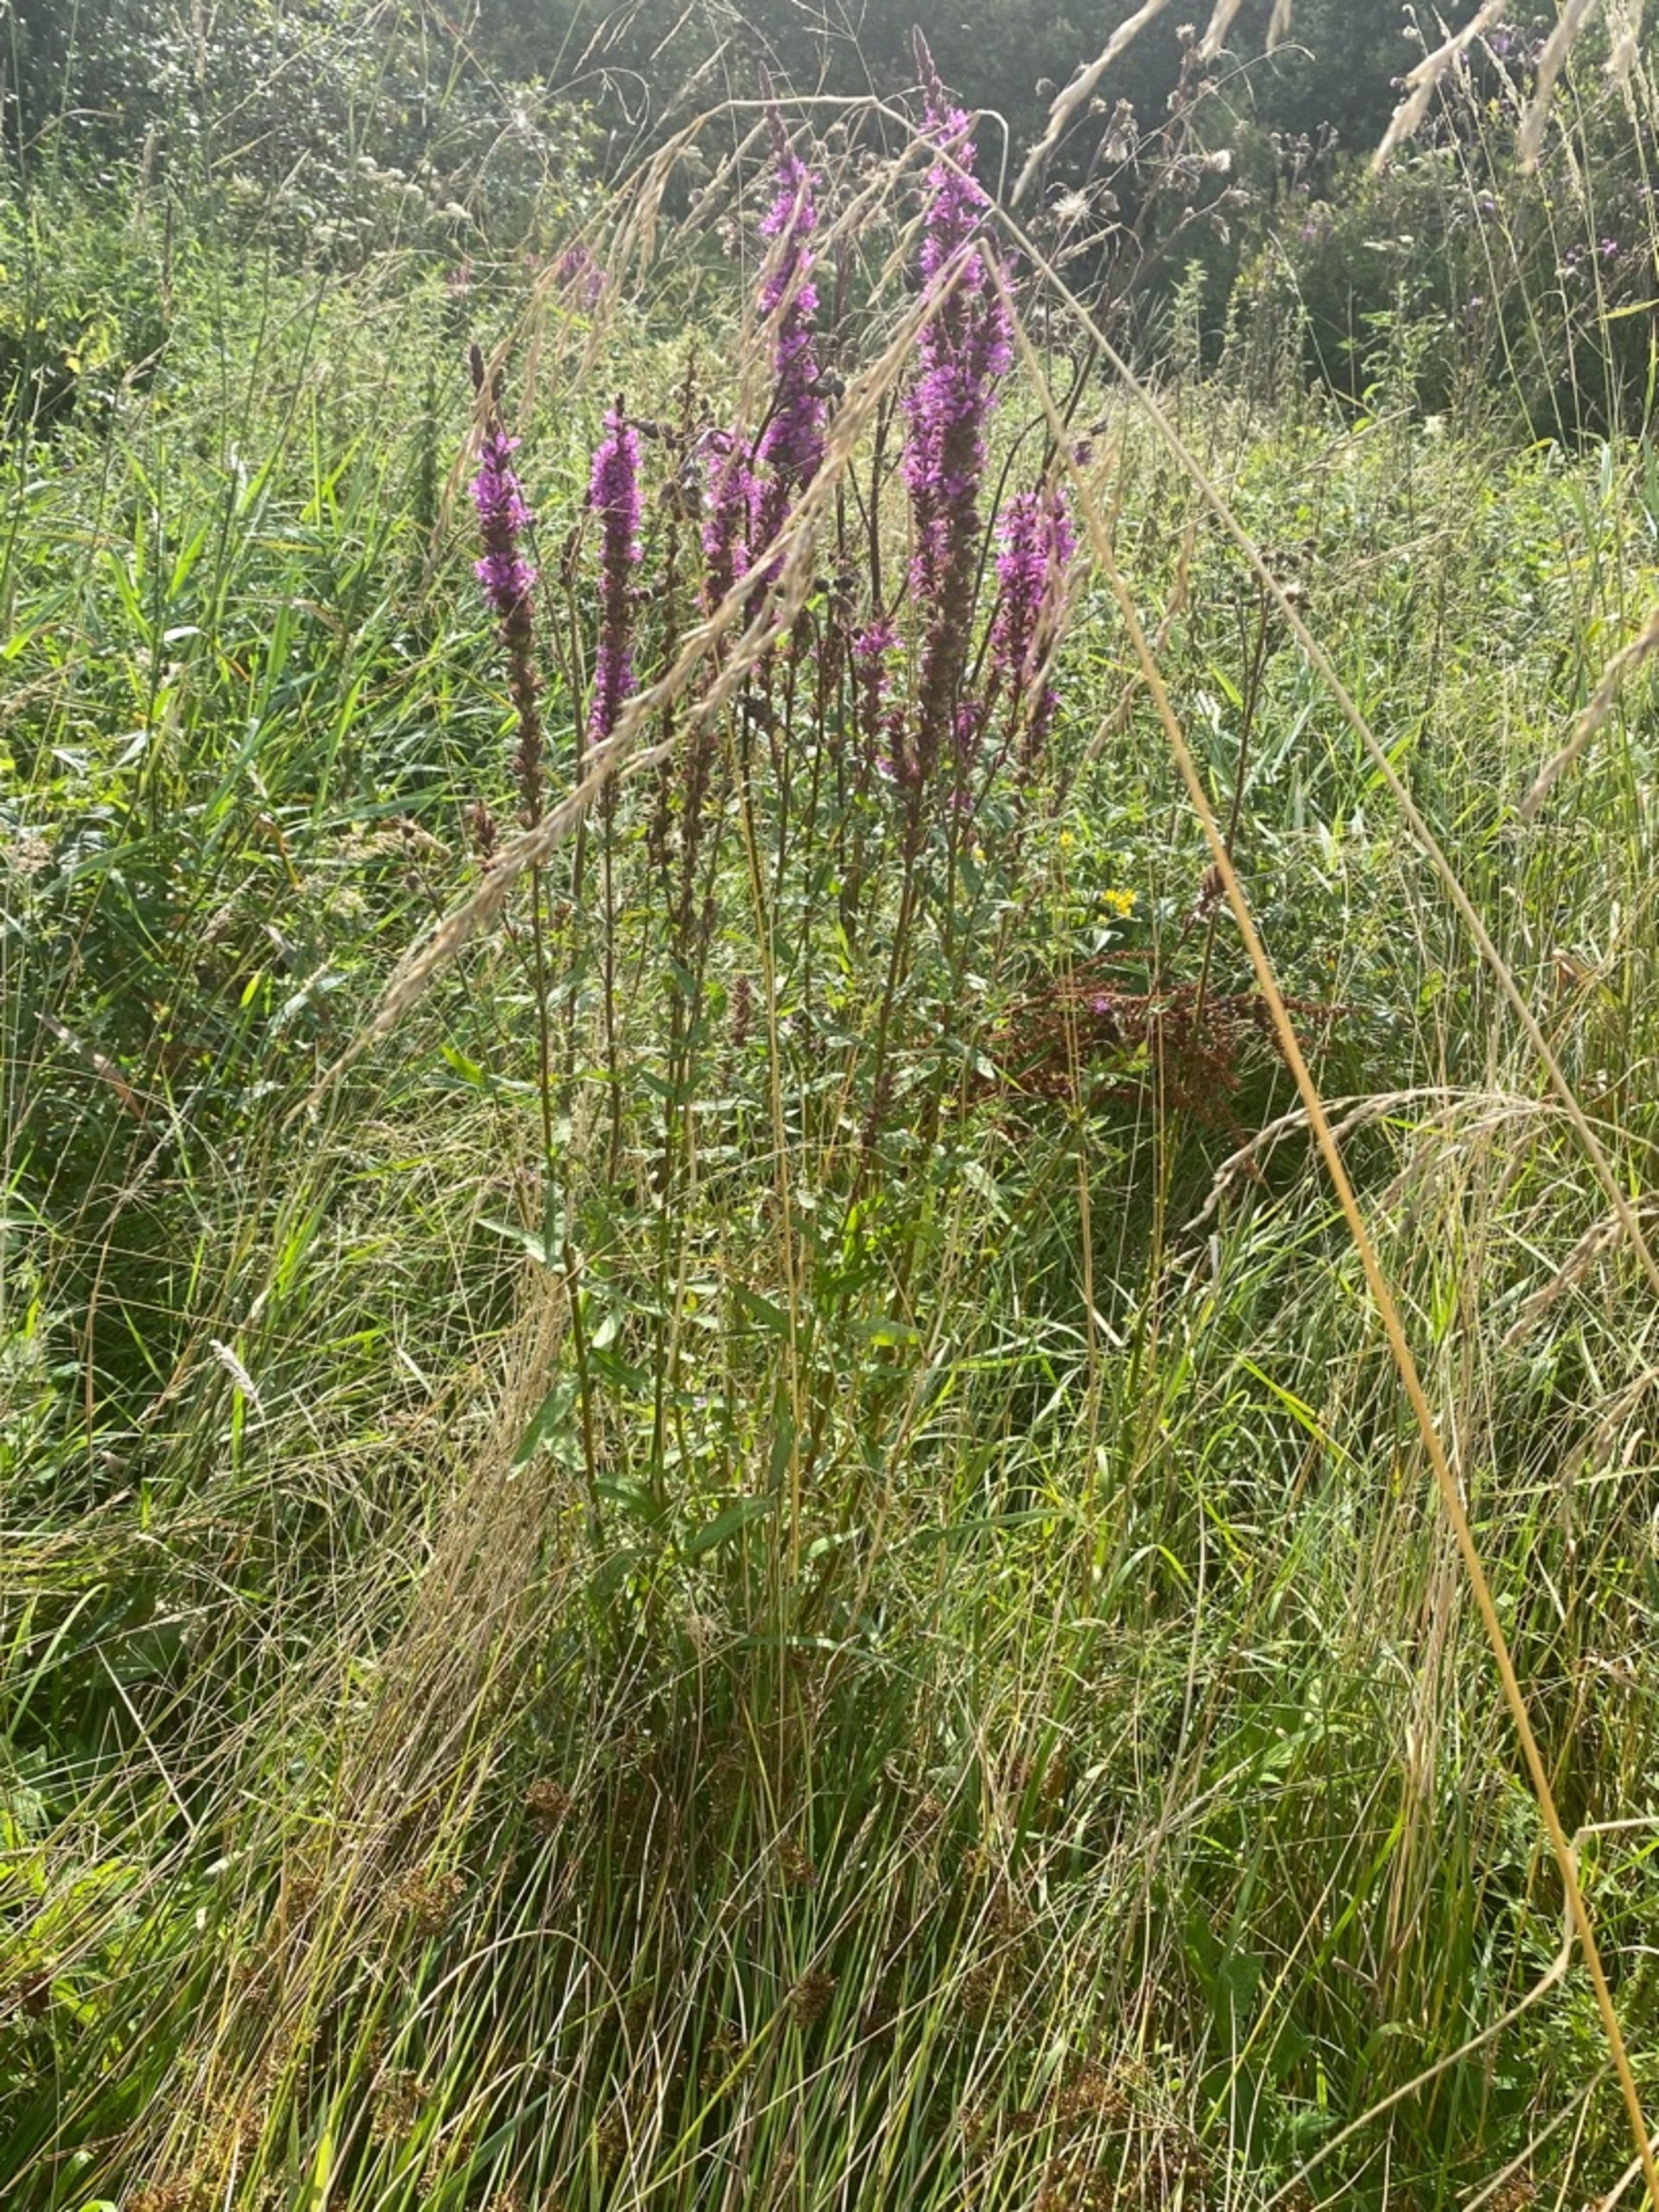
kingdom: Plantae
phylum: Tracheophyta
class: Magnoliopsida
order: Myrtales
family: Lythraceae
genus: Lythrum
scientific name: Lythrum salicaria
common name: Kattehale
